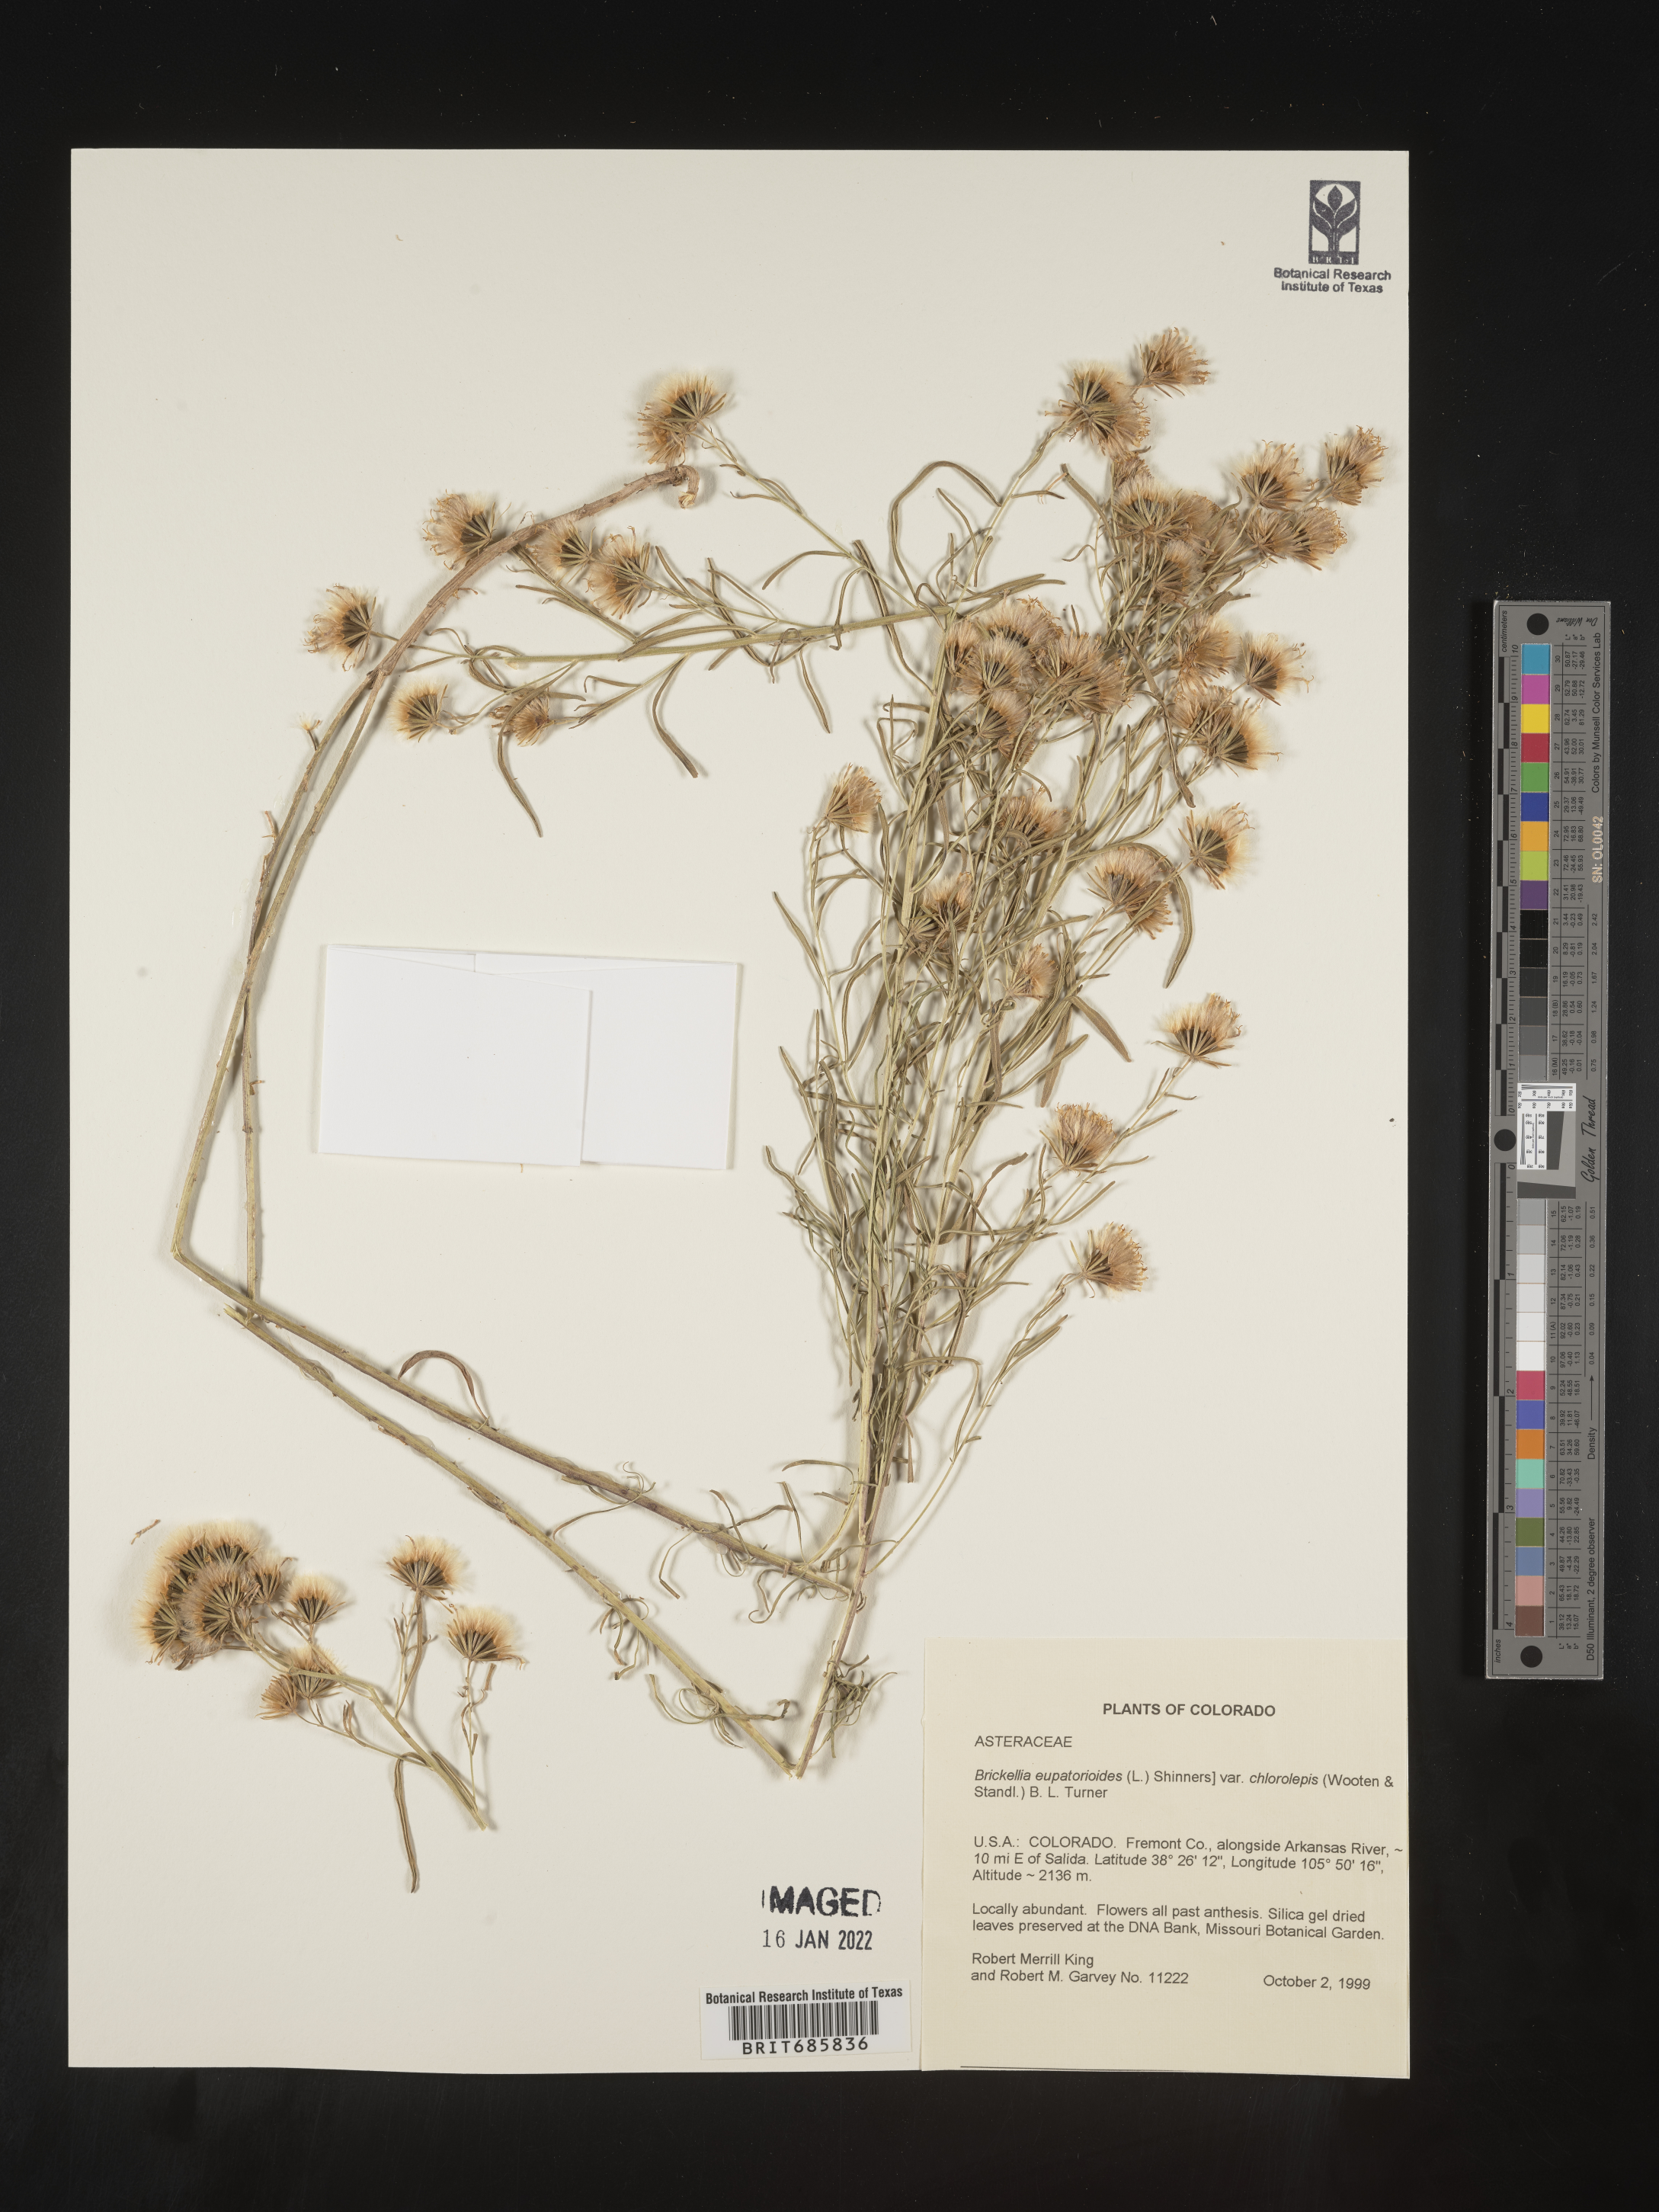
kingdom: Plantae
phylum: Tracheophyta
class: Magnoliopsida
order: Asterales
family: Asteraceae
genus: Brickellia
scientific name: Brickellia leptophylla
